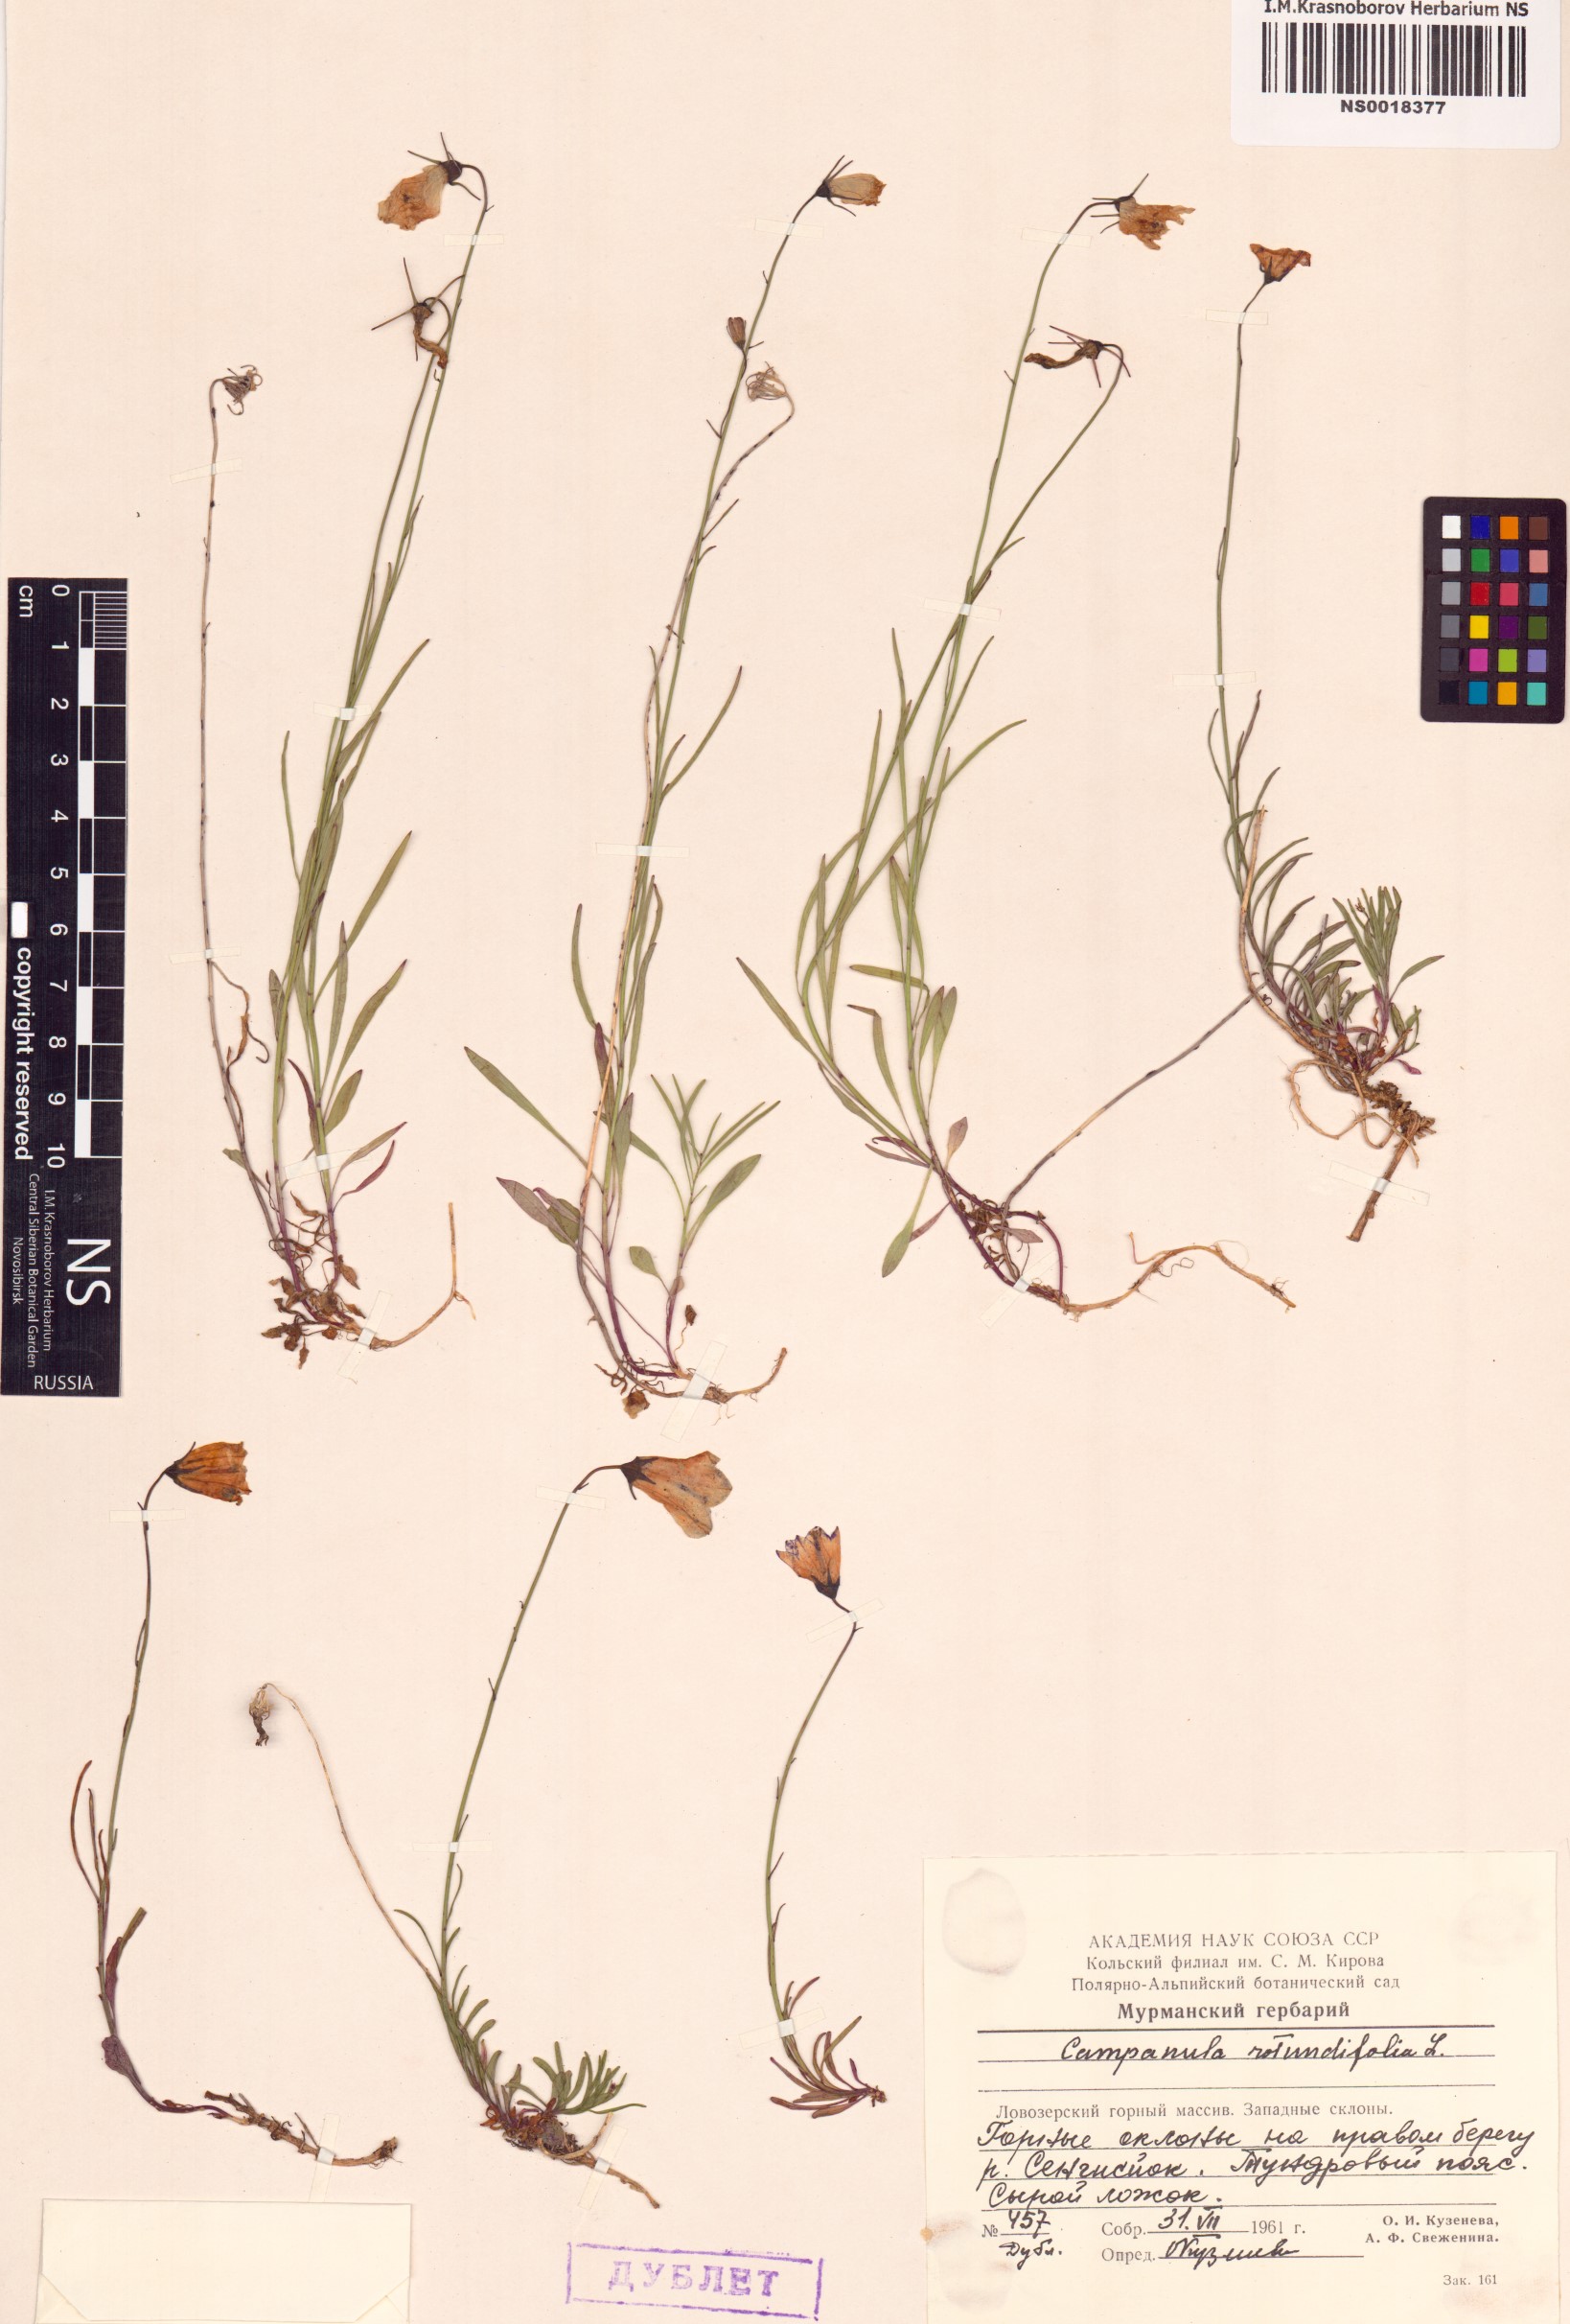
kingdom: Plantae
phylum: Tracheophyta
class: Magnoliopsida
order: Asterales
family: Campanulaceae
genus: Campanula
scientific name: Campanula rotundifolia
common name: Harebell
